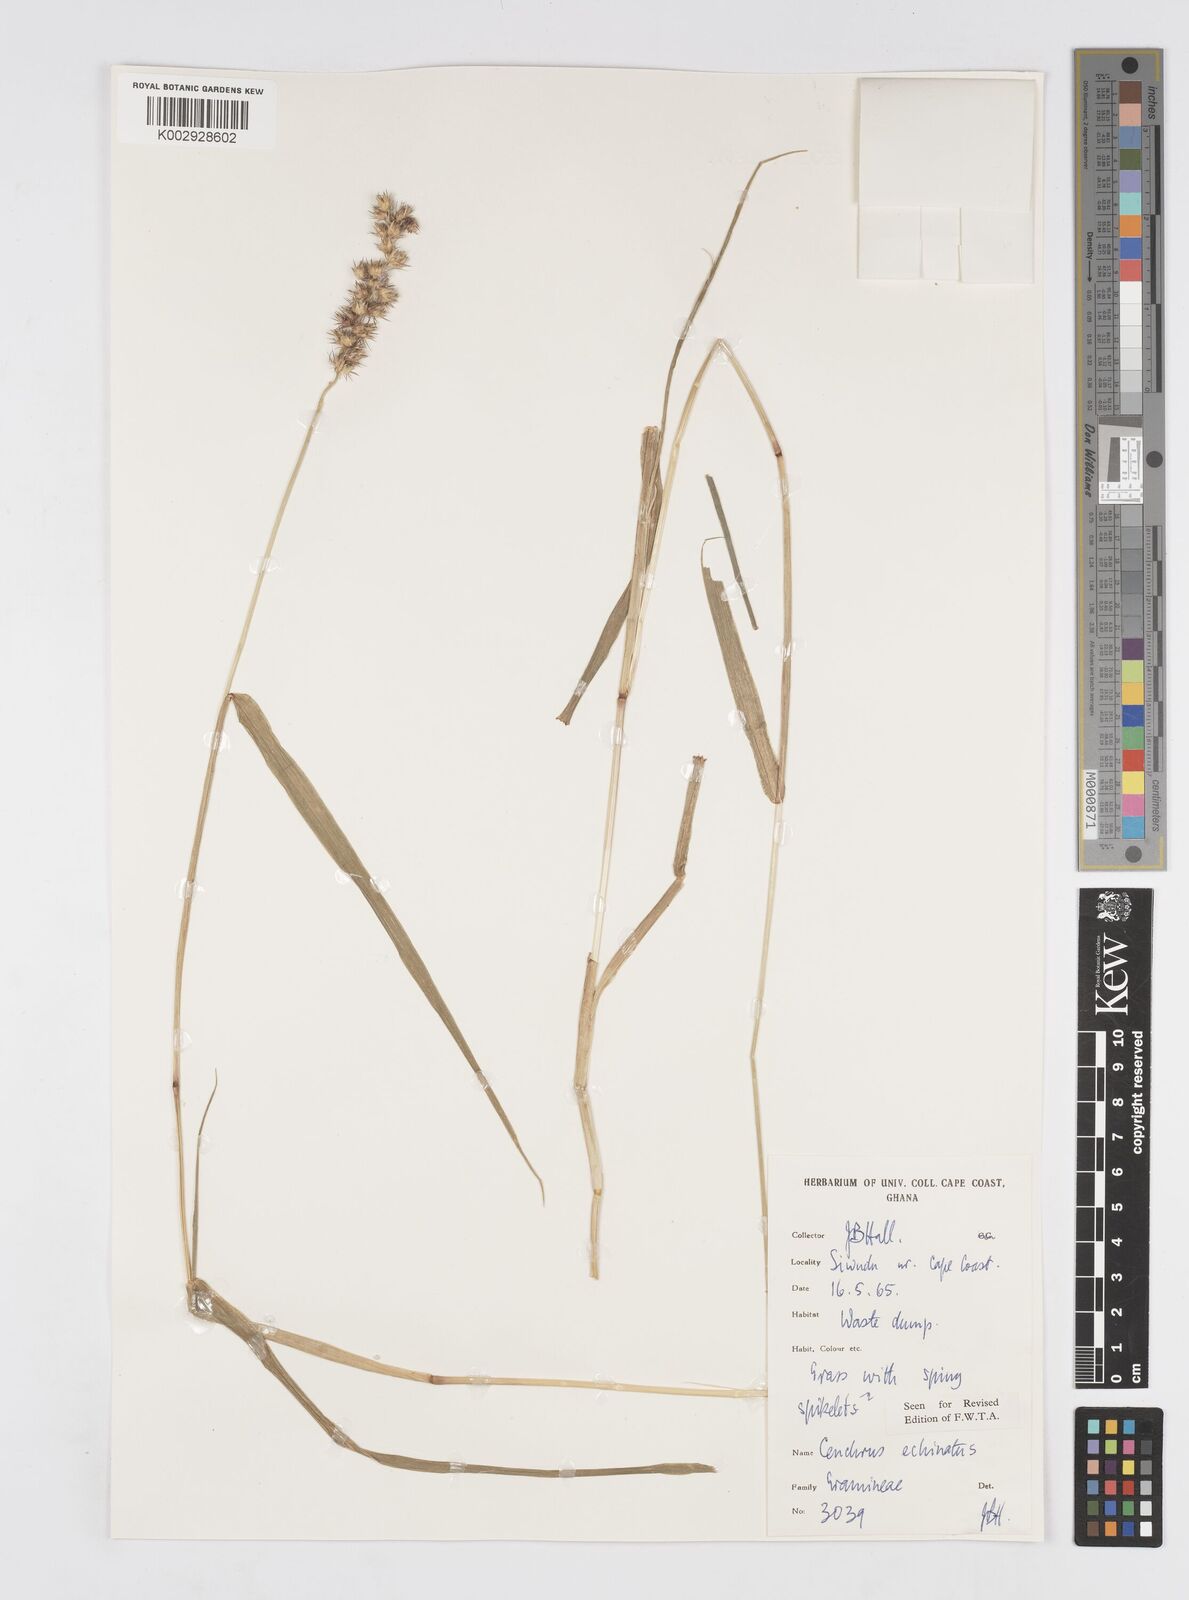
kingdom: Plantae
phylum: Tracheophyta
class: Liliopsida
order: Poales
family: Poaceae
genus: Cenchrus
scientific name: Cenchrus echinatus
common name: Southern sandbur
